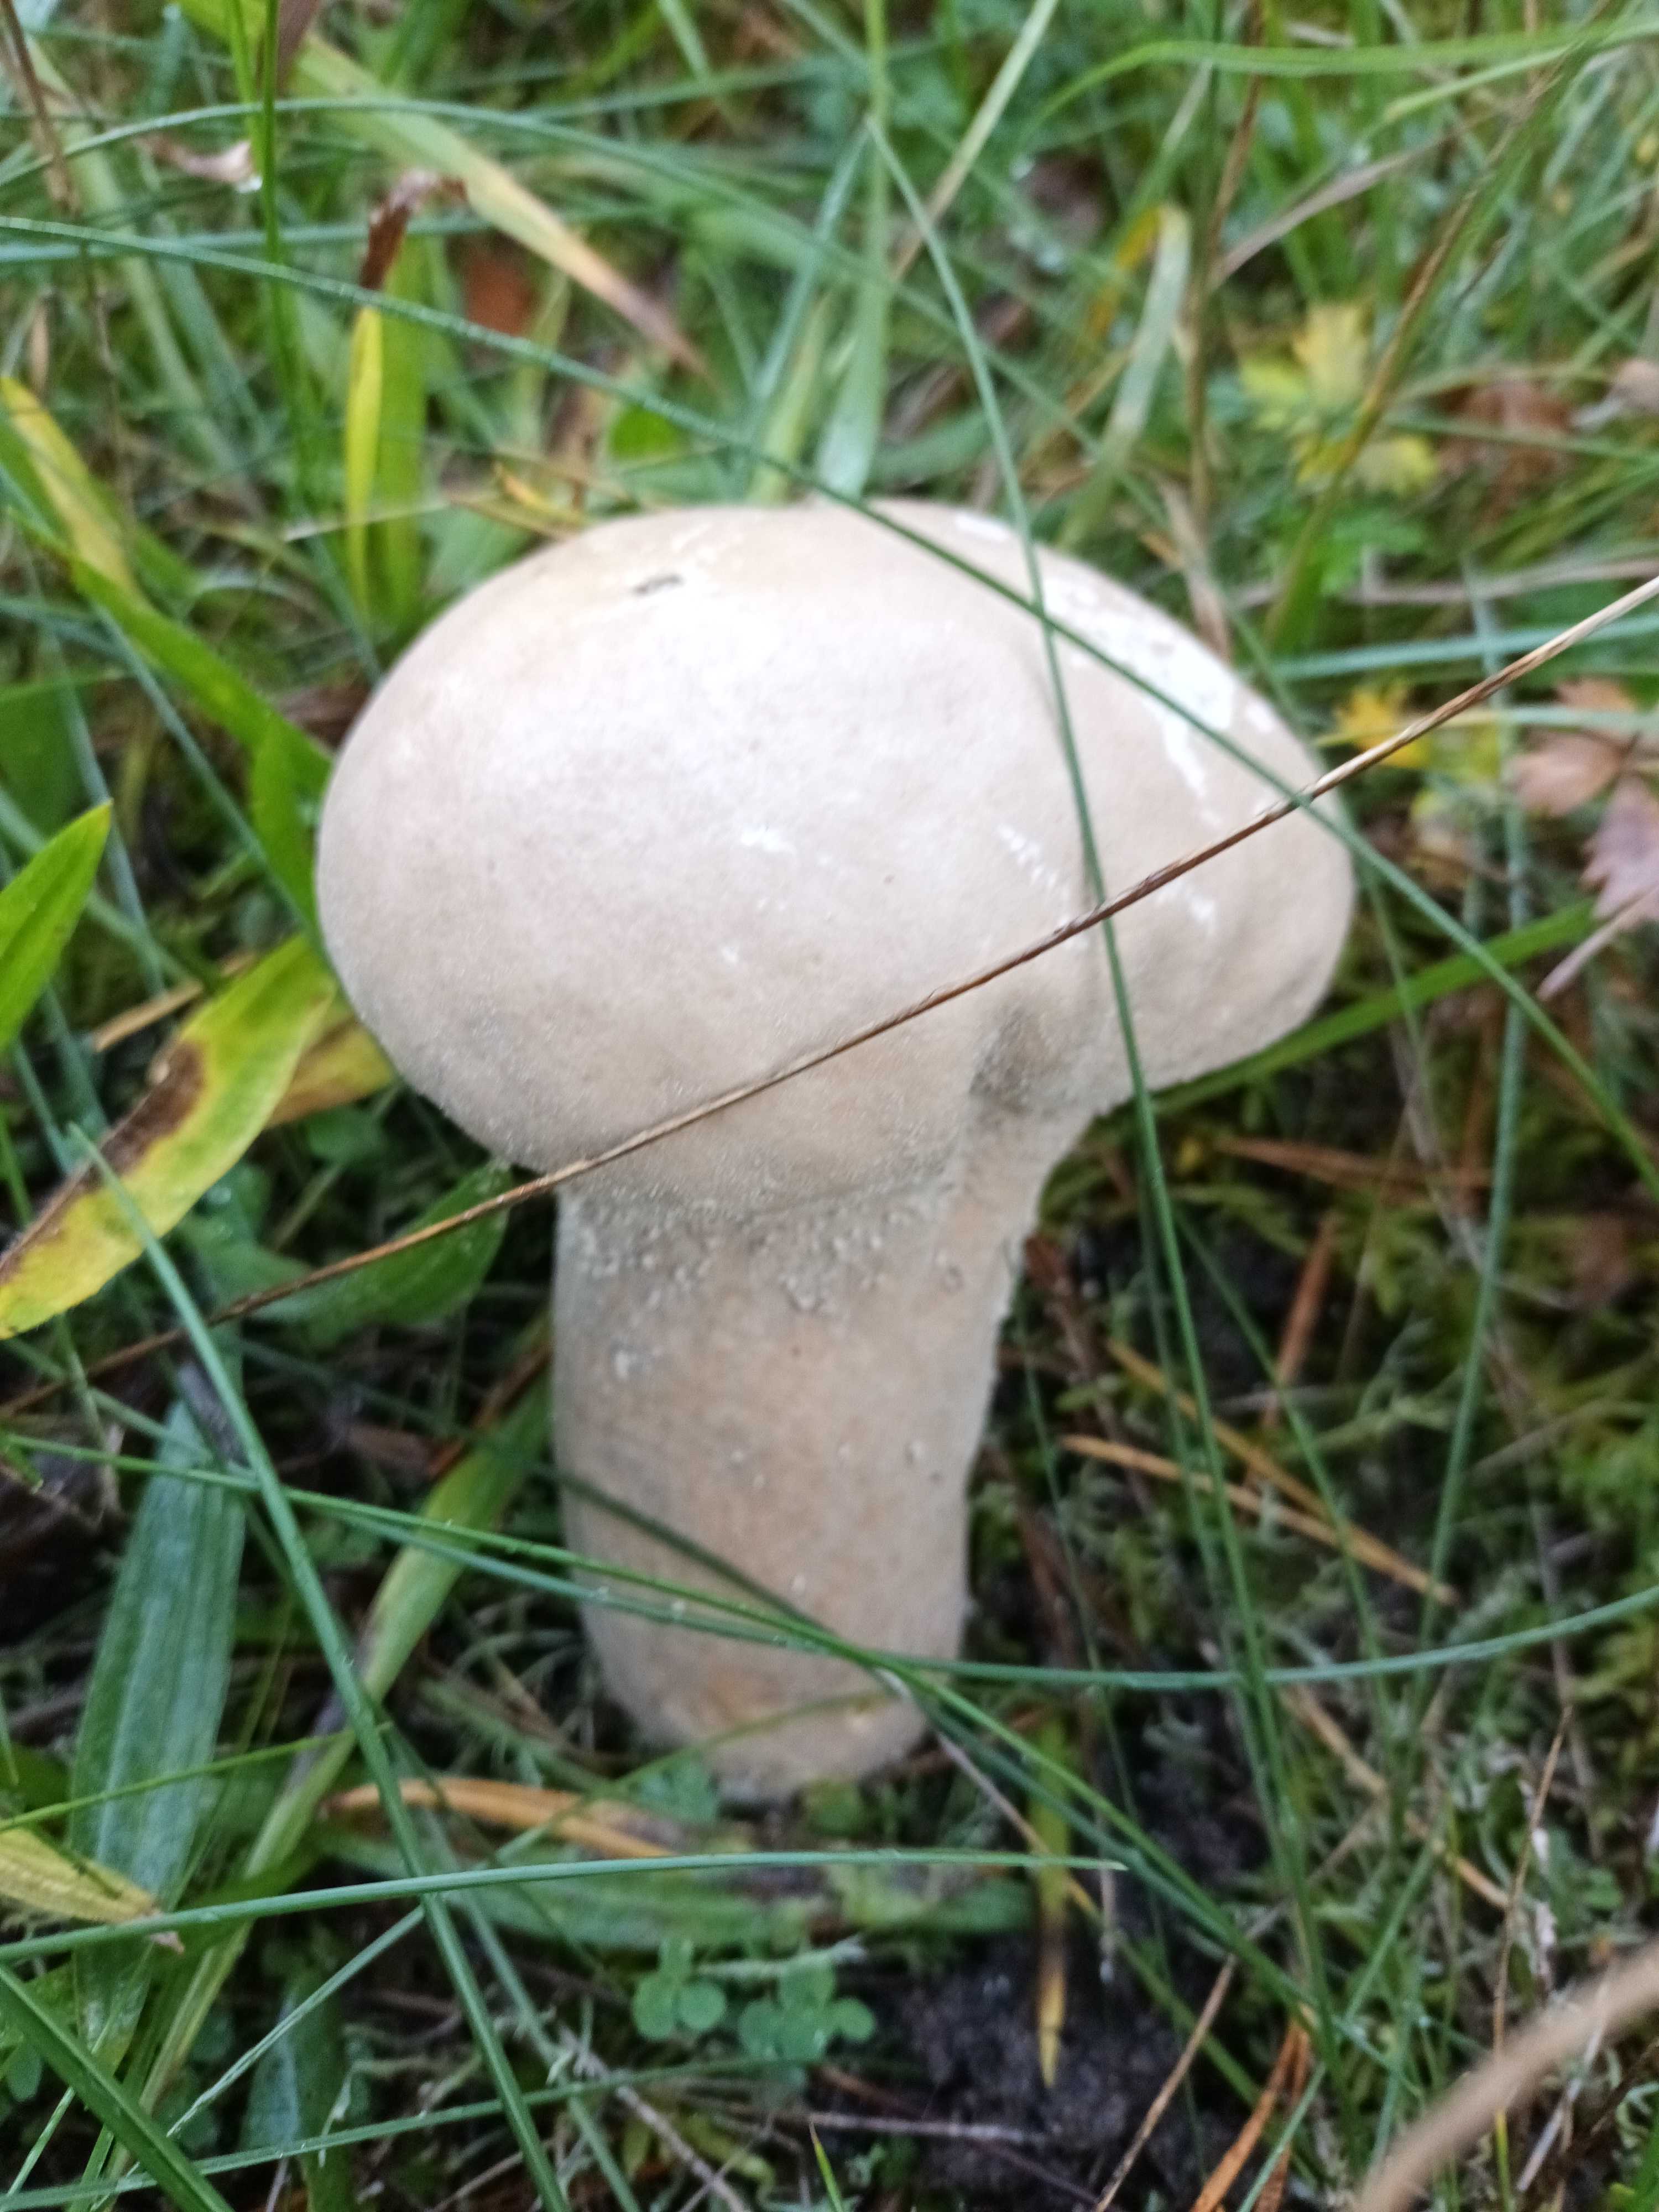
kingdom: Fungi
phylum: Basidiomycota
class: Agaricomycetes
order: Agaricales
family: Lycoperdaceae
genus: Lycoperdon
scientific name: Lycoperdon excipuliforme
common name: højstokket støvbold
